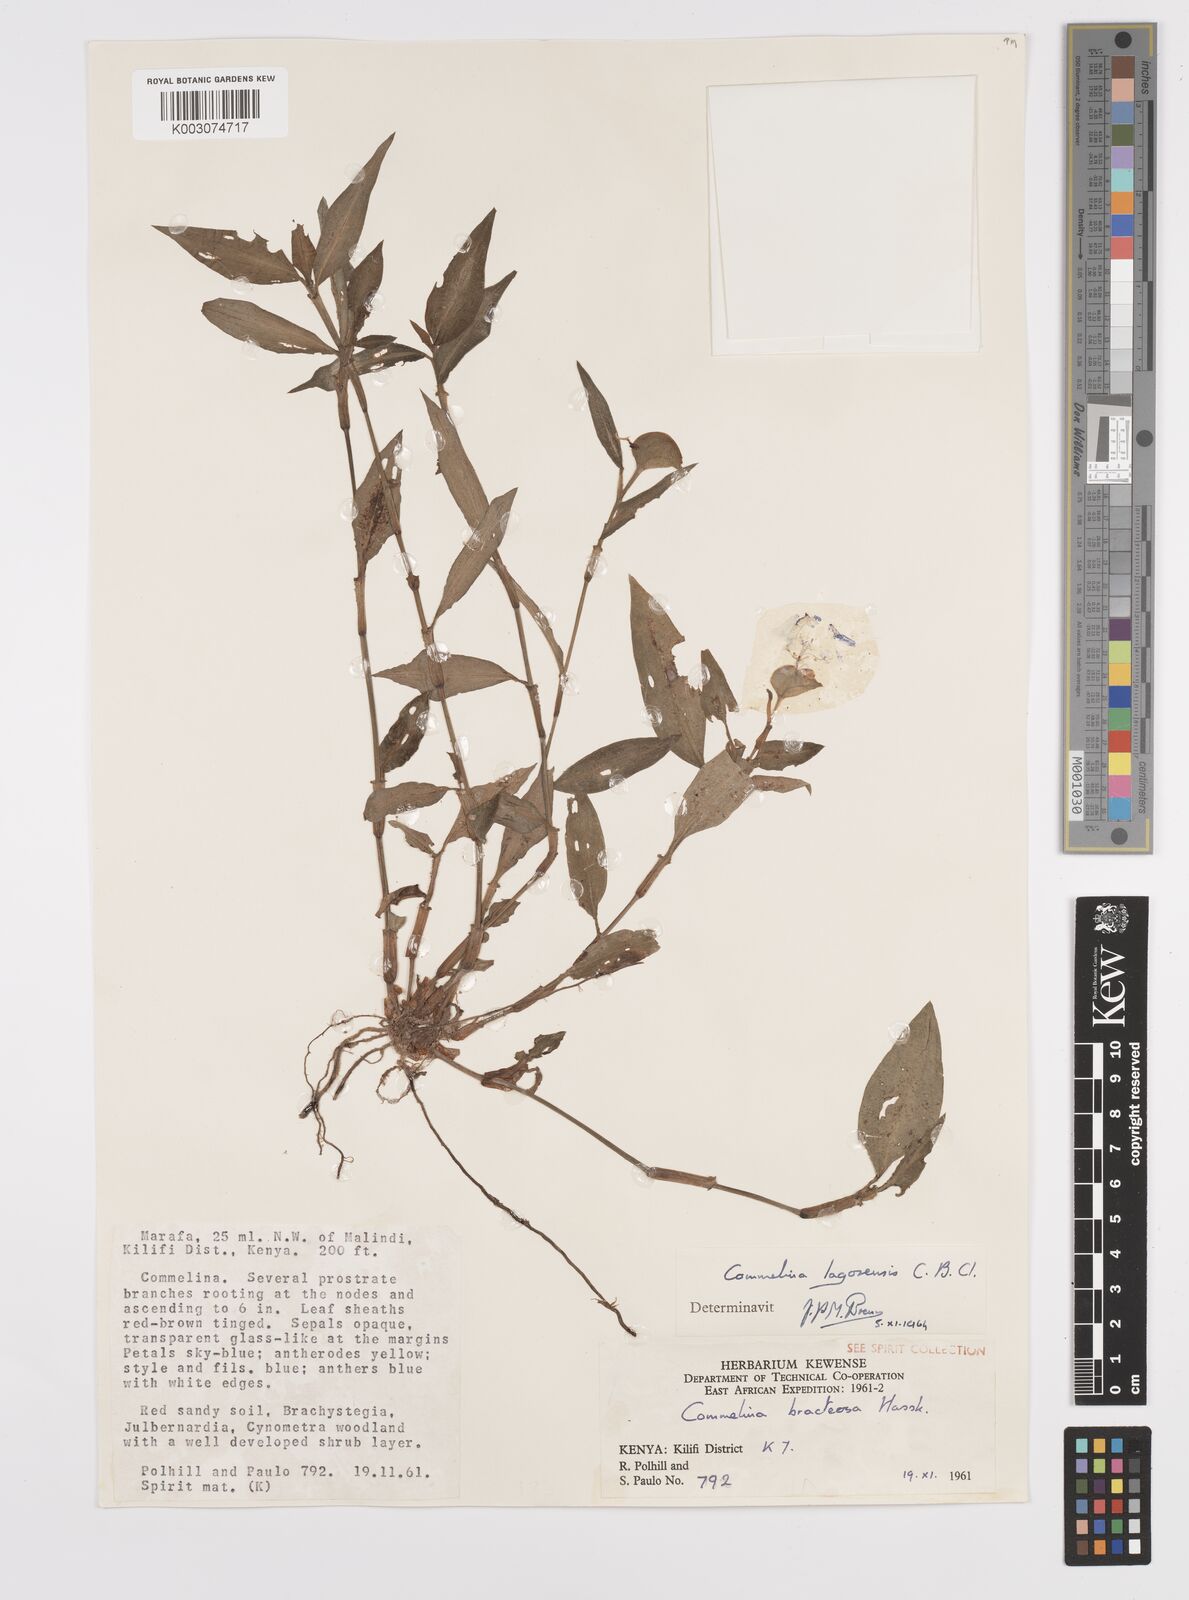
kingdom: Plantae
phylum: Tracheophyta
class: Liliopsida
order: Commelinales
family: Commelinaceae
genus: Commelina
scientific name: Commelina bracteosa
